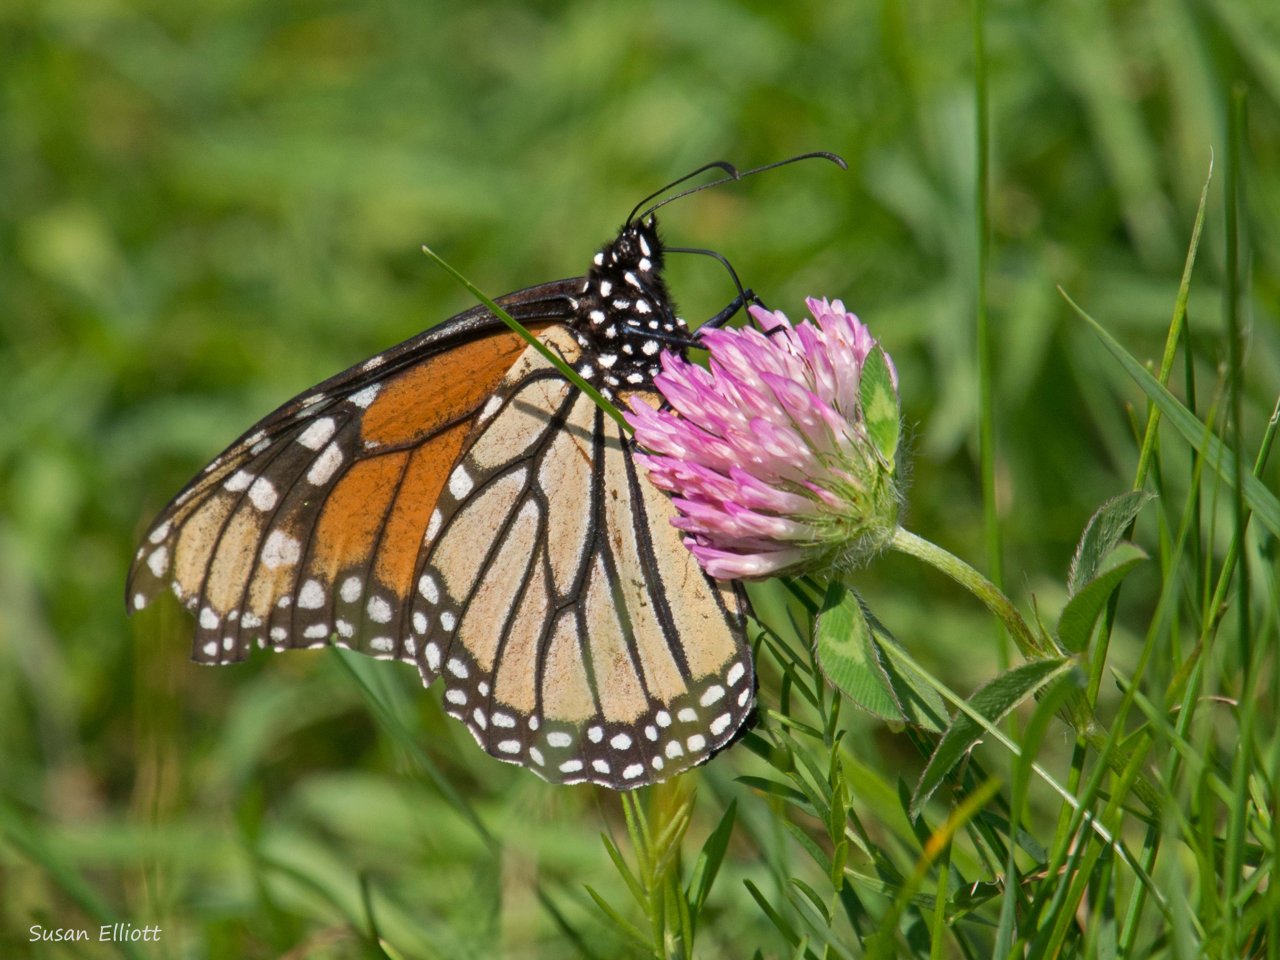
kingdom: Animalia
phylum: Arthropoda
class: Insecta
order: Lepidoptera
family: Nymphalidae
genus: Danaus
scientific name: Danaus plexippus
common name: Monarch
